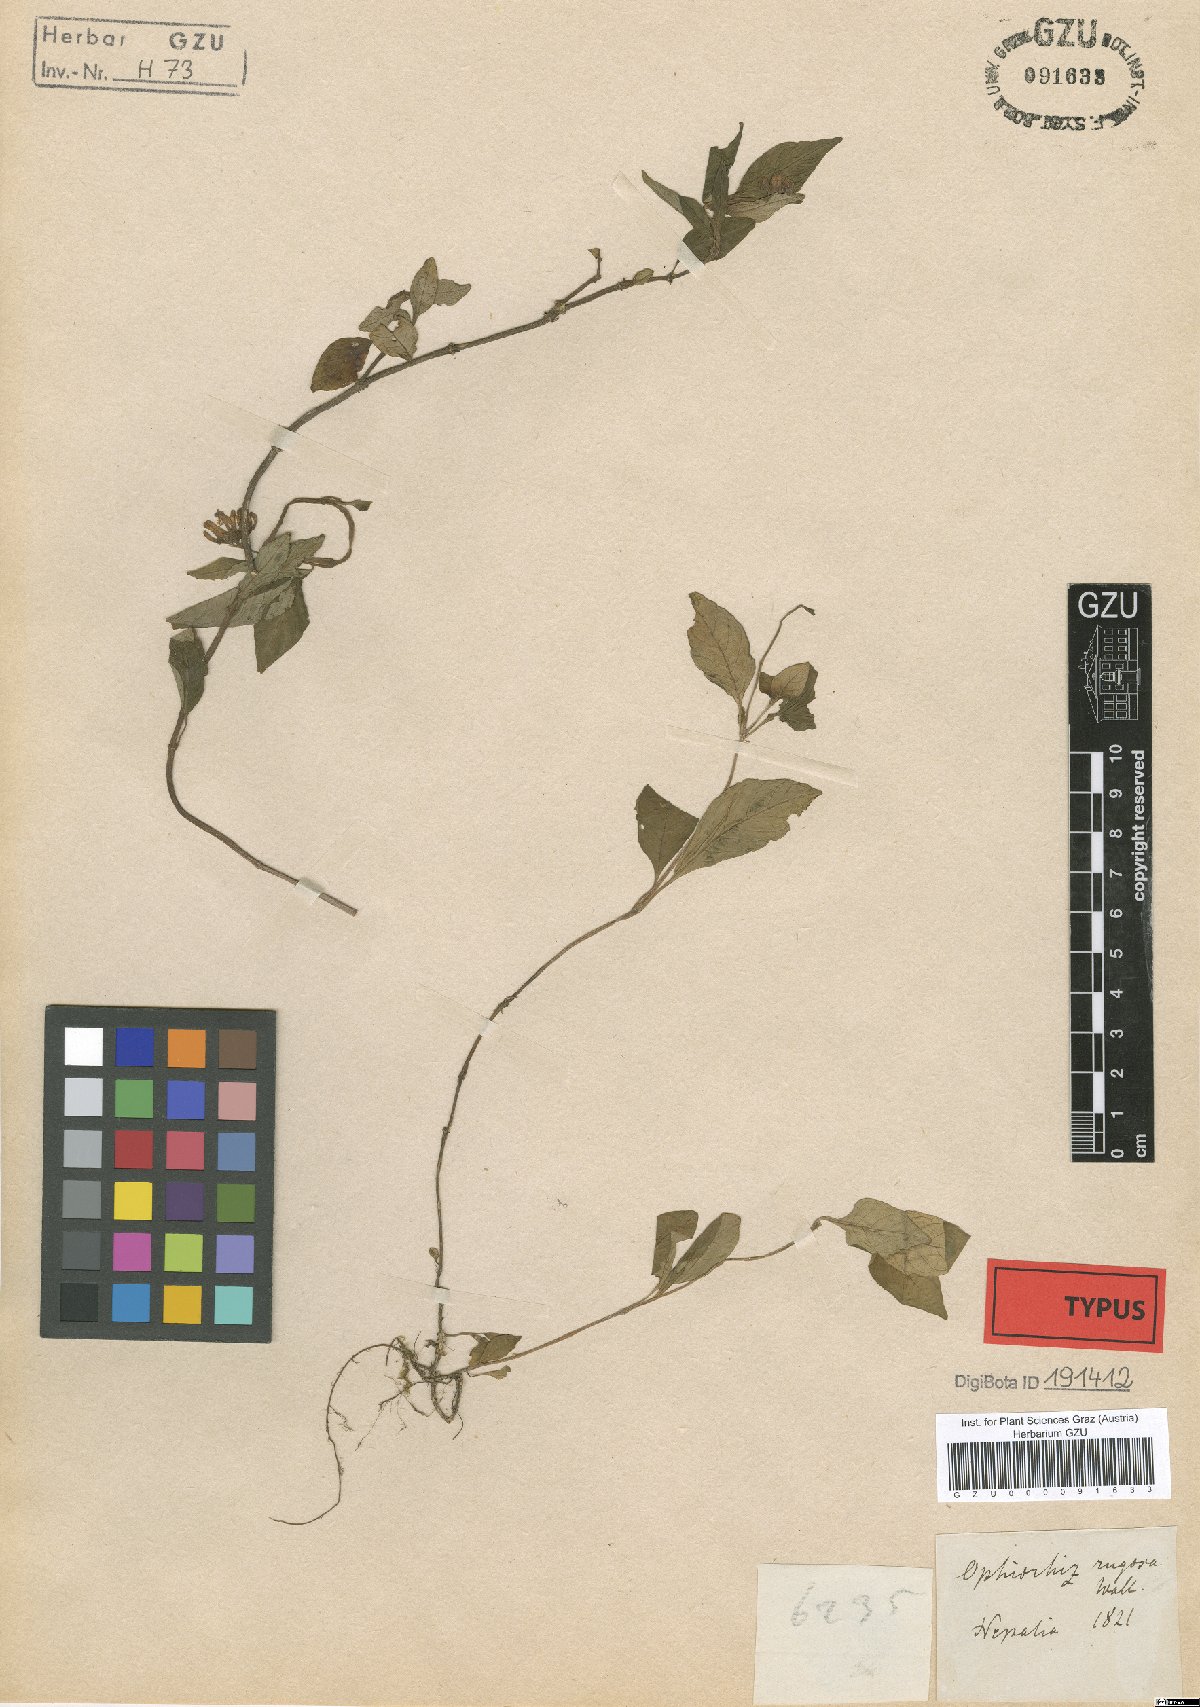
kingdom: Plantae
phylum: Tracheophyta
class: Magnoliopsida
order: Gentianales
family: Rubiaceae
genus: Ophiorrhiza
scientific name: Ophiorrhiza rugosa
